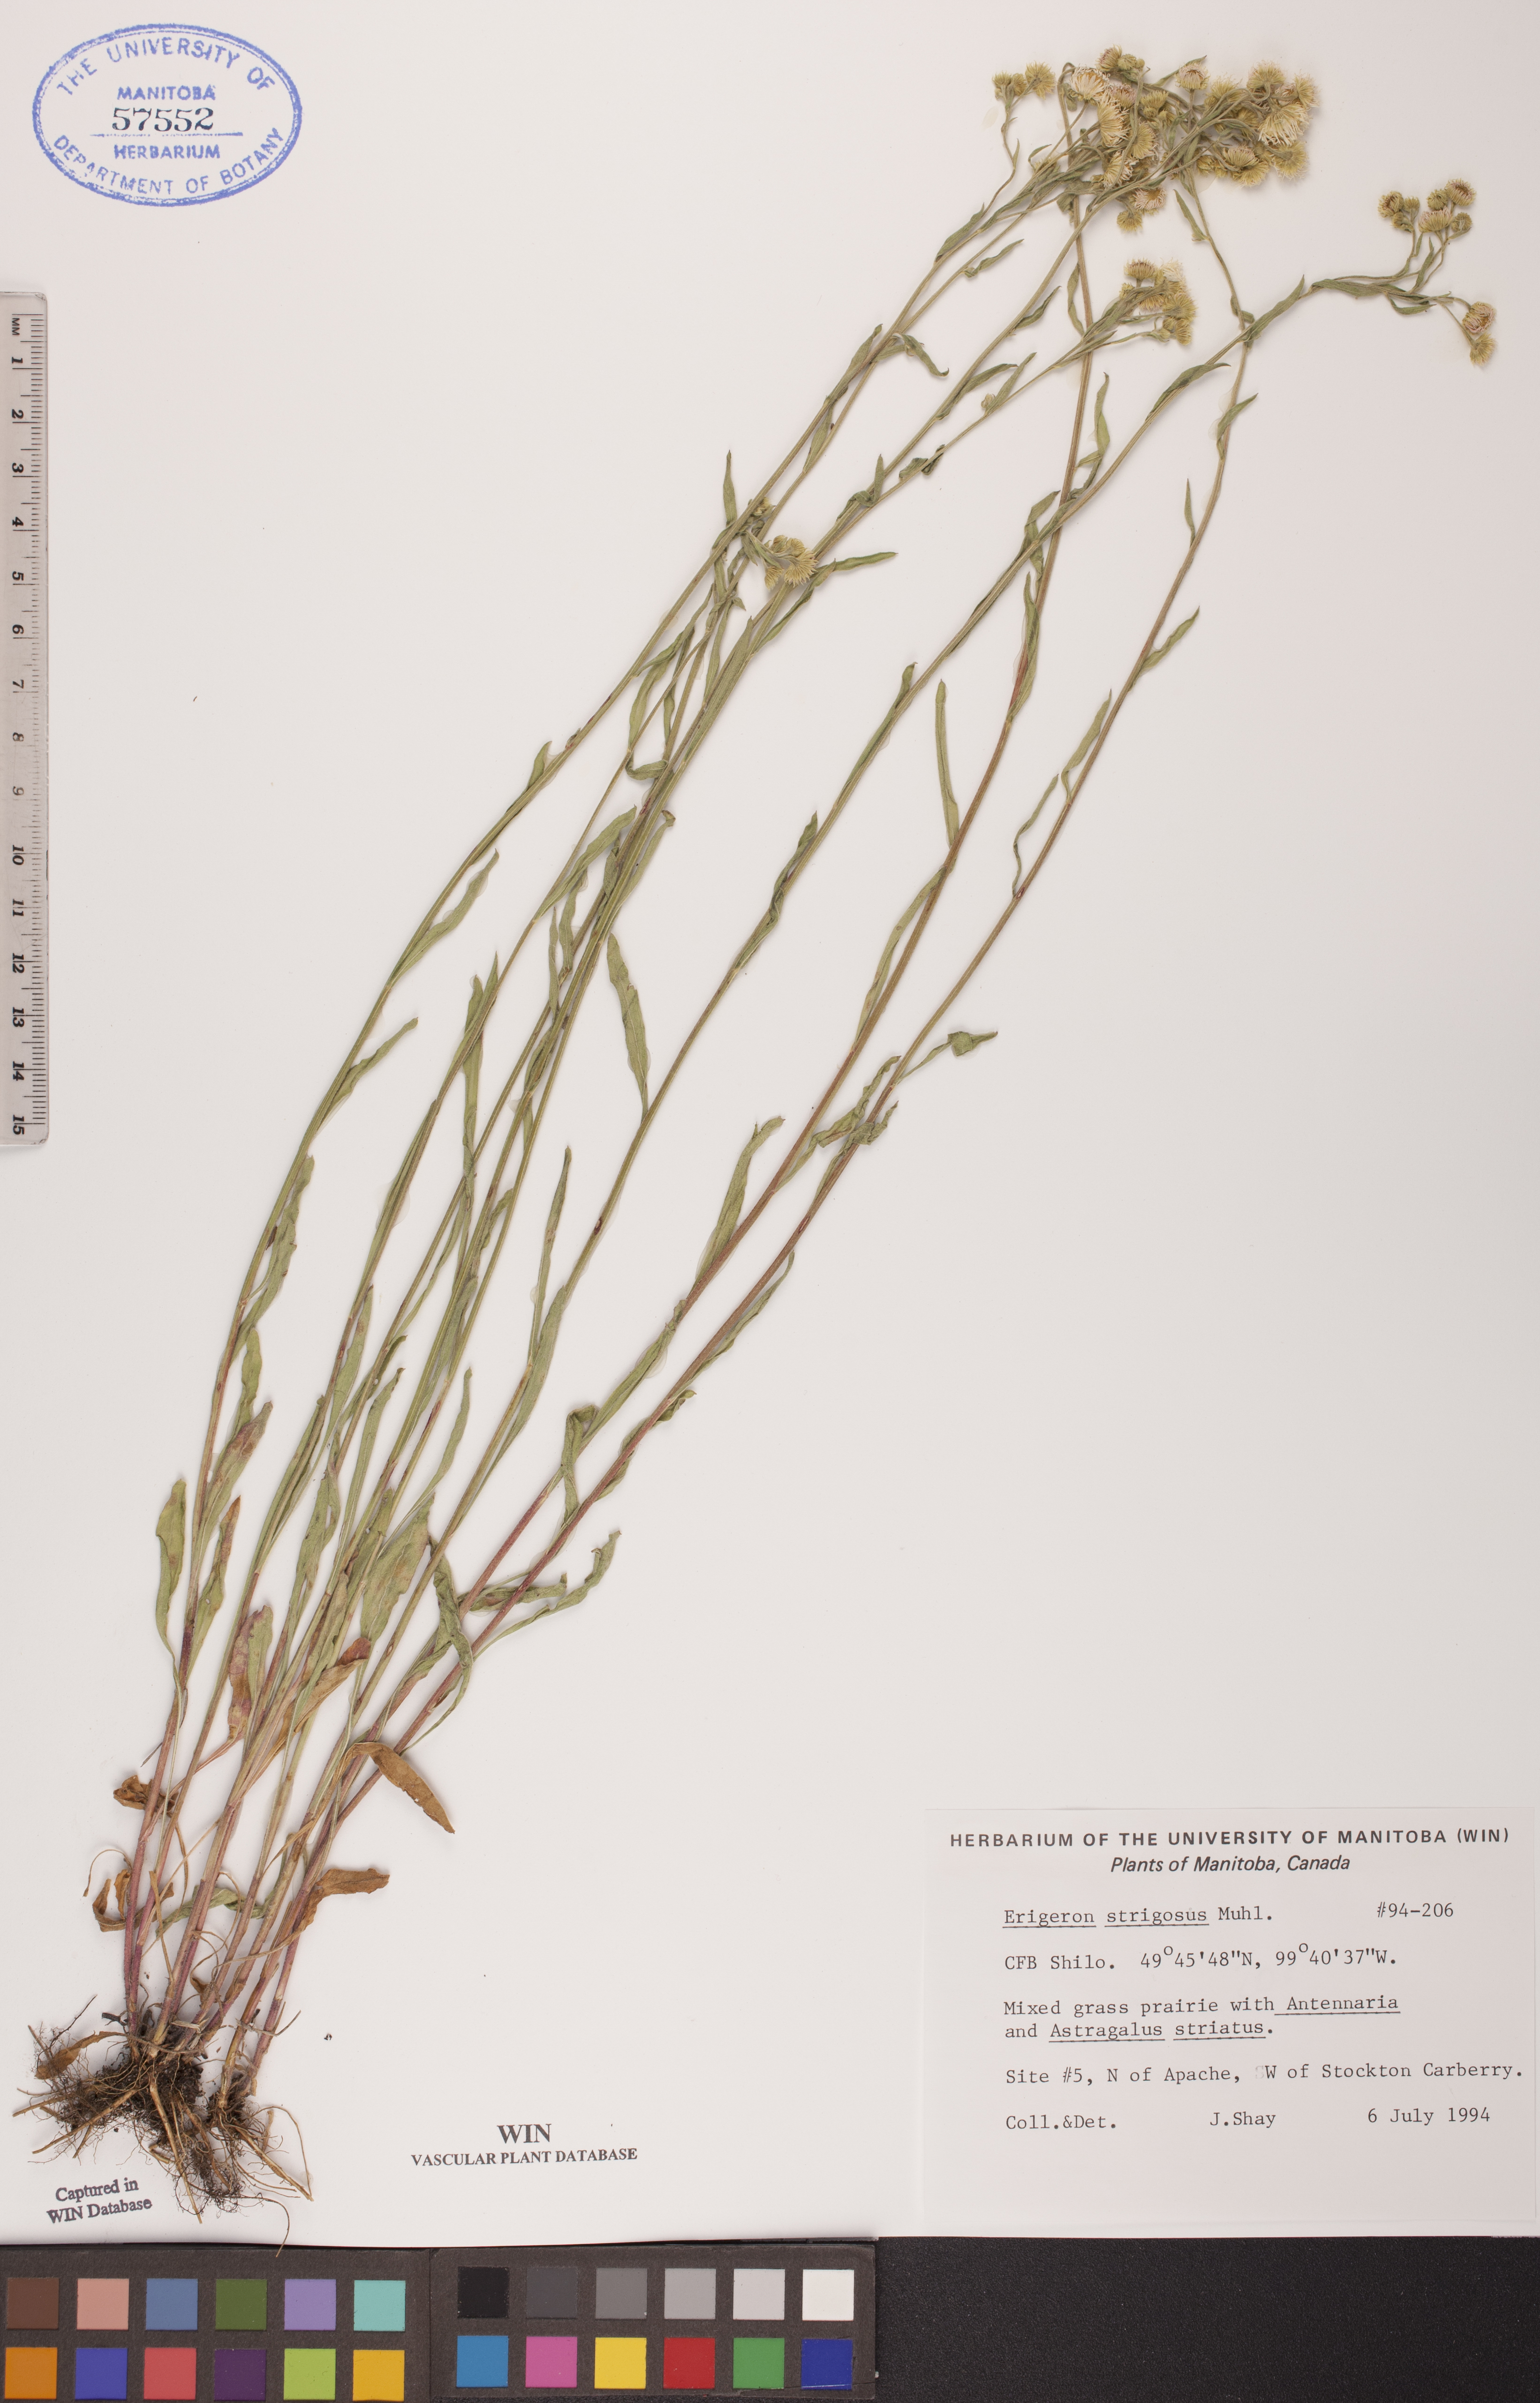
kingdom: Plantae
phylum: Tracheophyta
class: Magnoliopsida
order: Asterales
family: Asteraceae
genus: Erigeron
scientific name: Erigeron strigosus
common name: Common eastern fleabane
